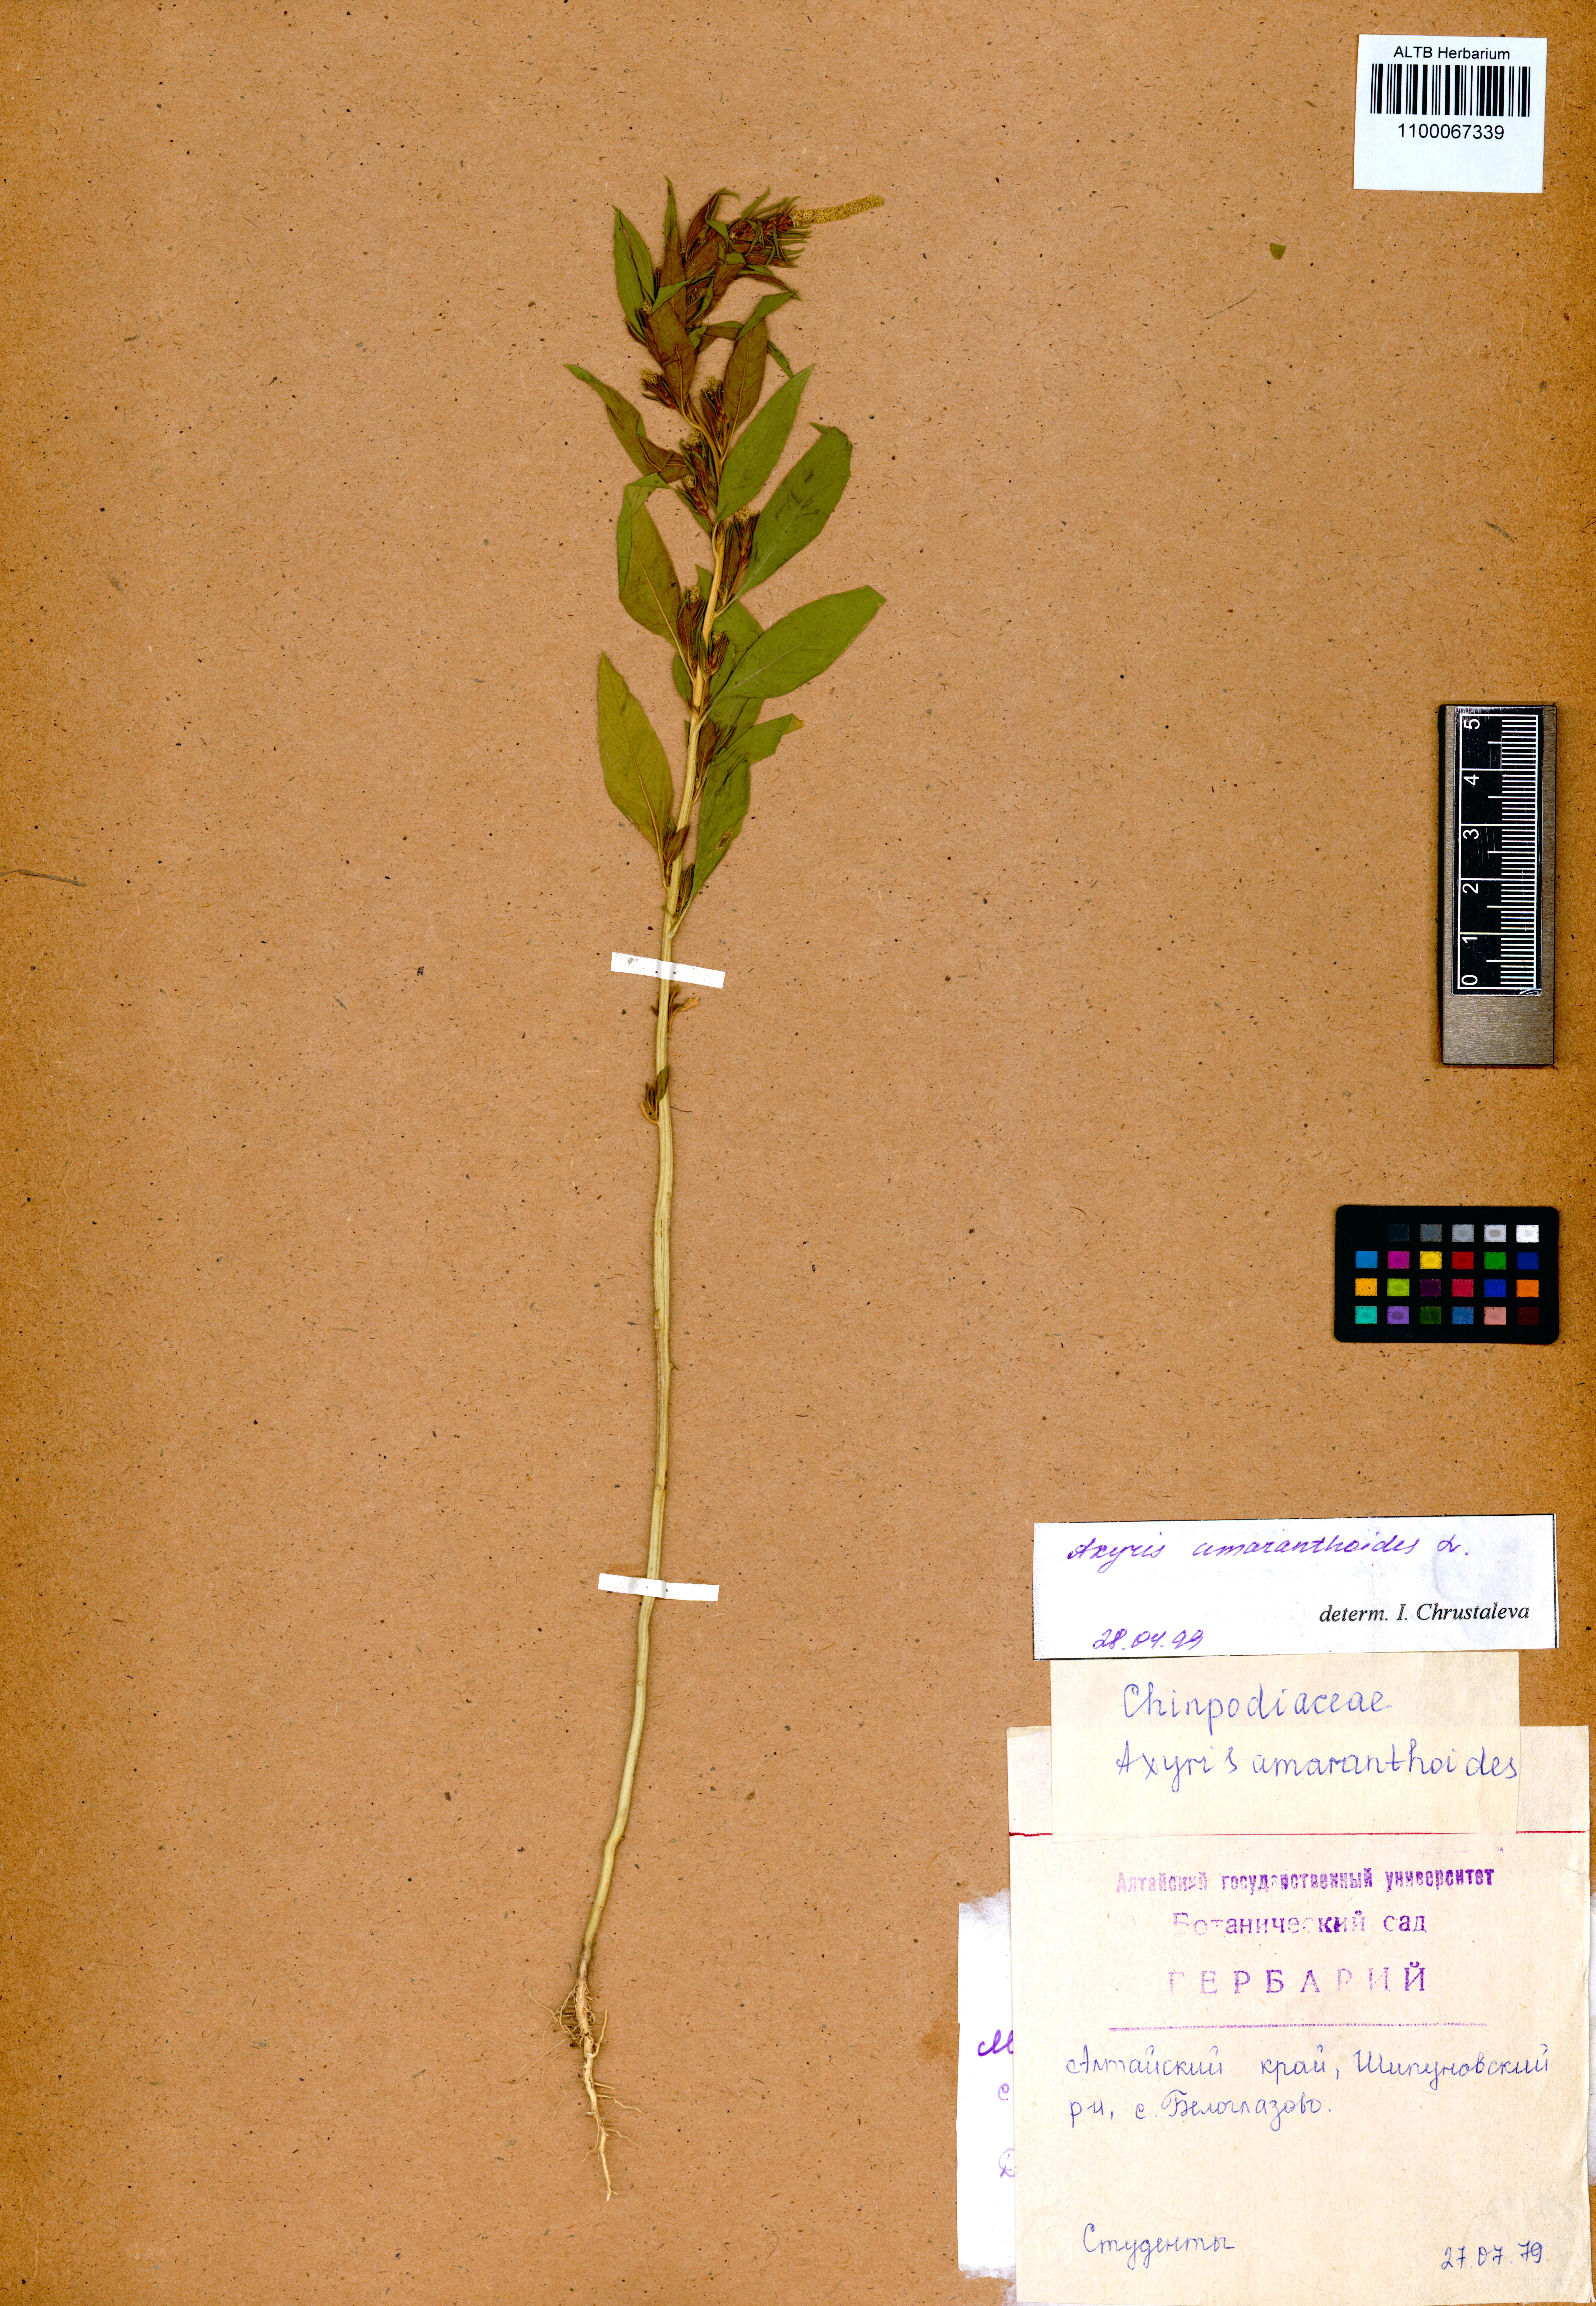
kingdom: Plantae
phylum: Tracheophyta
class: Magnoliopsida
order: Caryophyllales
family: Amaranthaceae
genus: Axyris
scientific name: Axyris amaranthoides
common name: Russian pigweed
